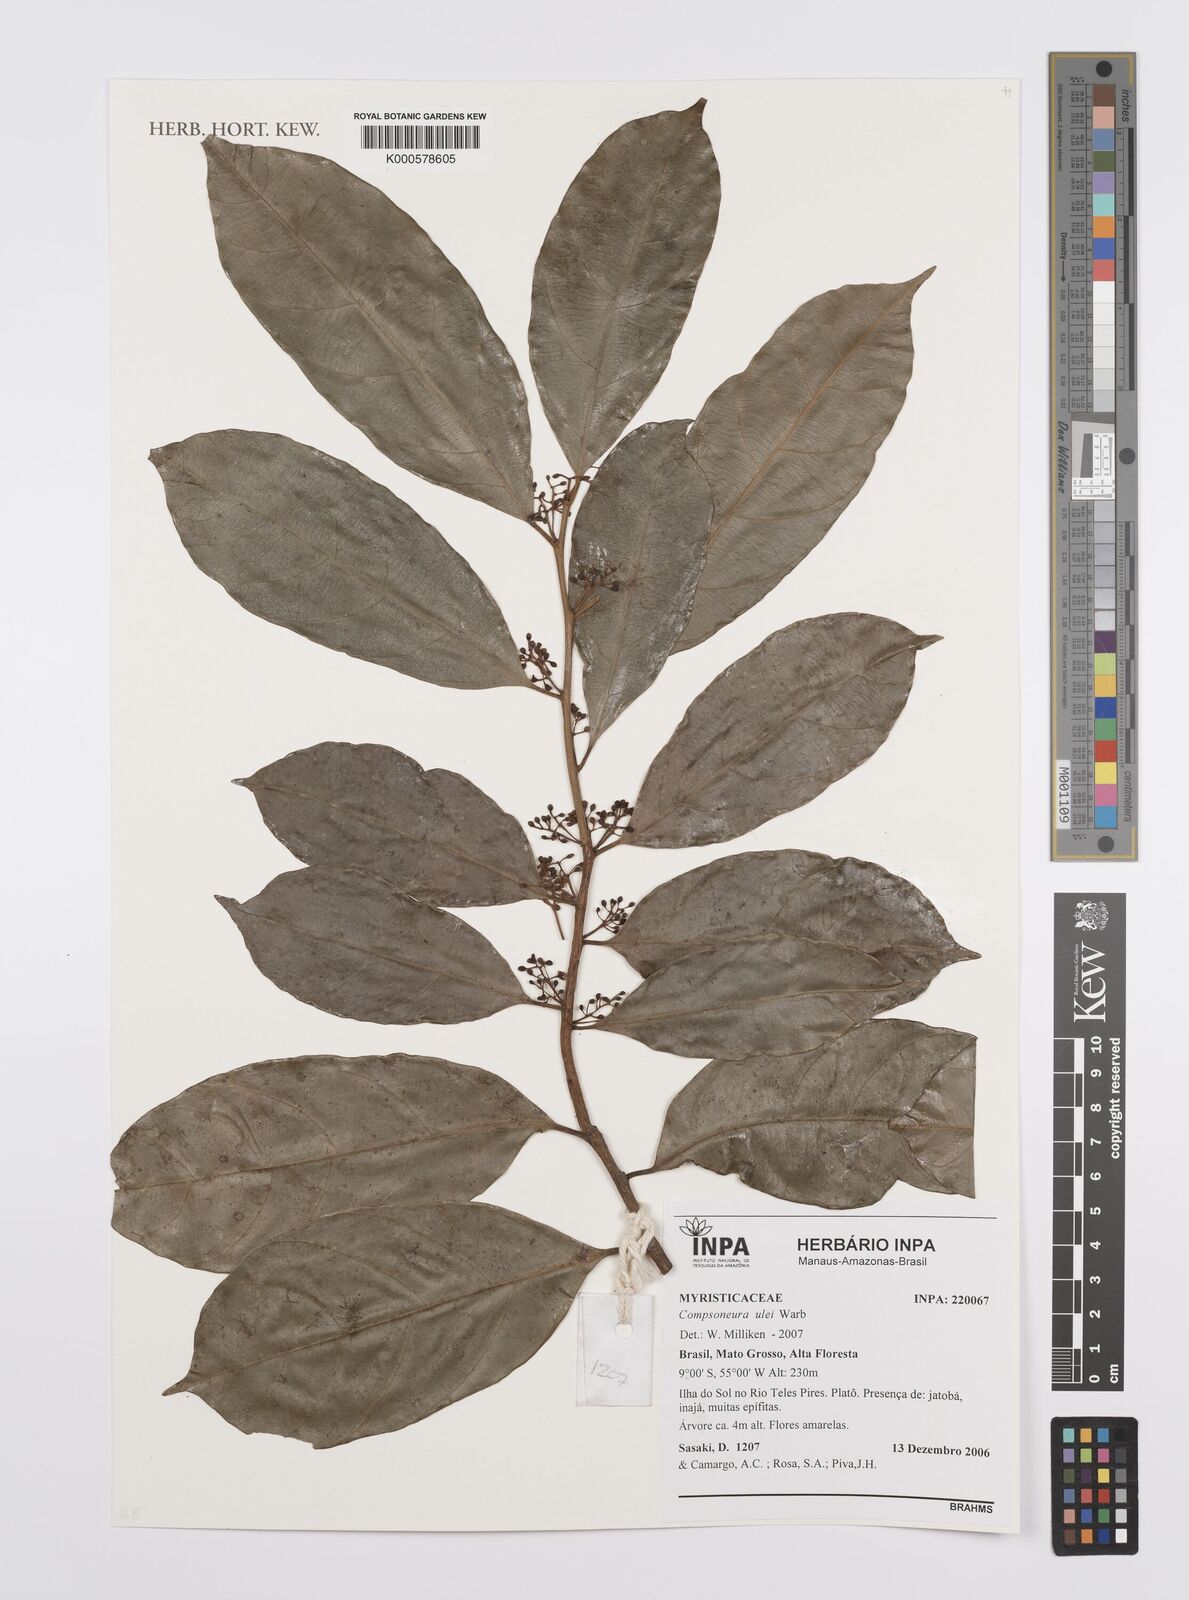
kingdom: Plantae
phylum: Tracheophyta
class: Magnoliopsida
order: Magnoliales
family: Myristicaceae
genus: Compsoneura
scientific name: Compsoneura ulei
